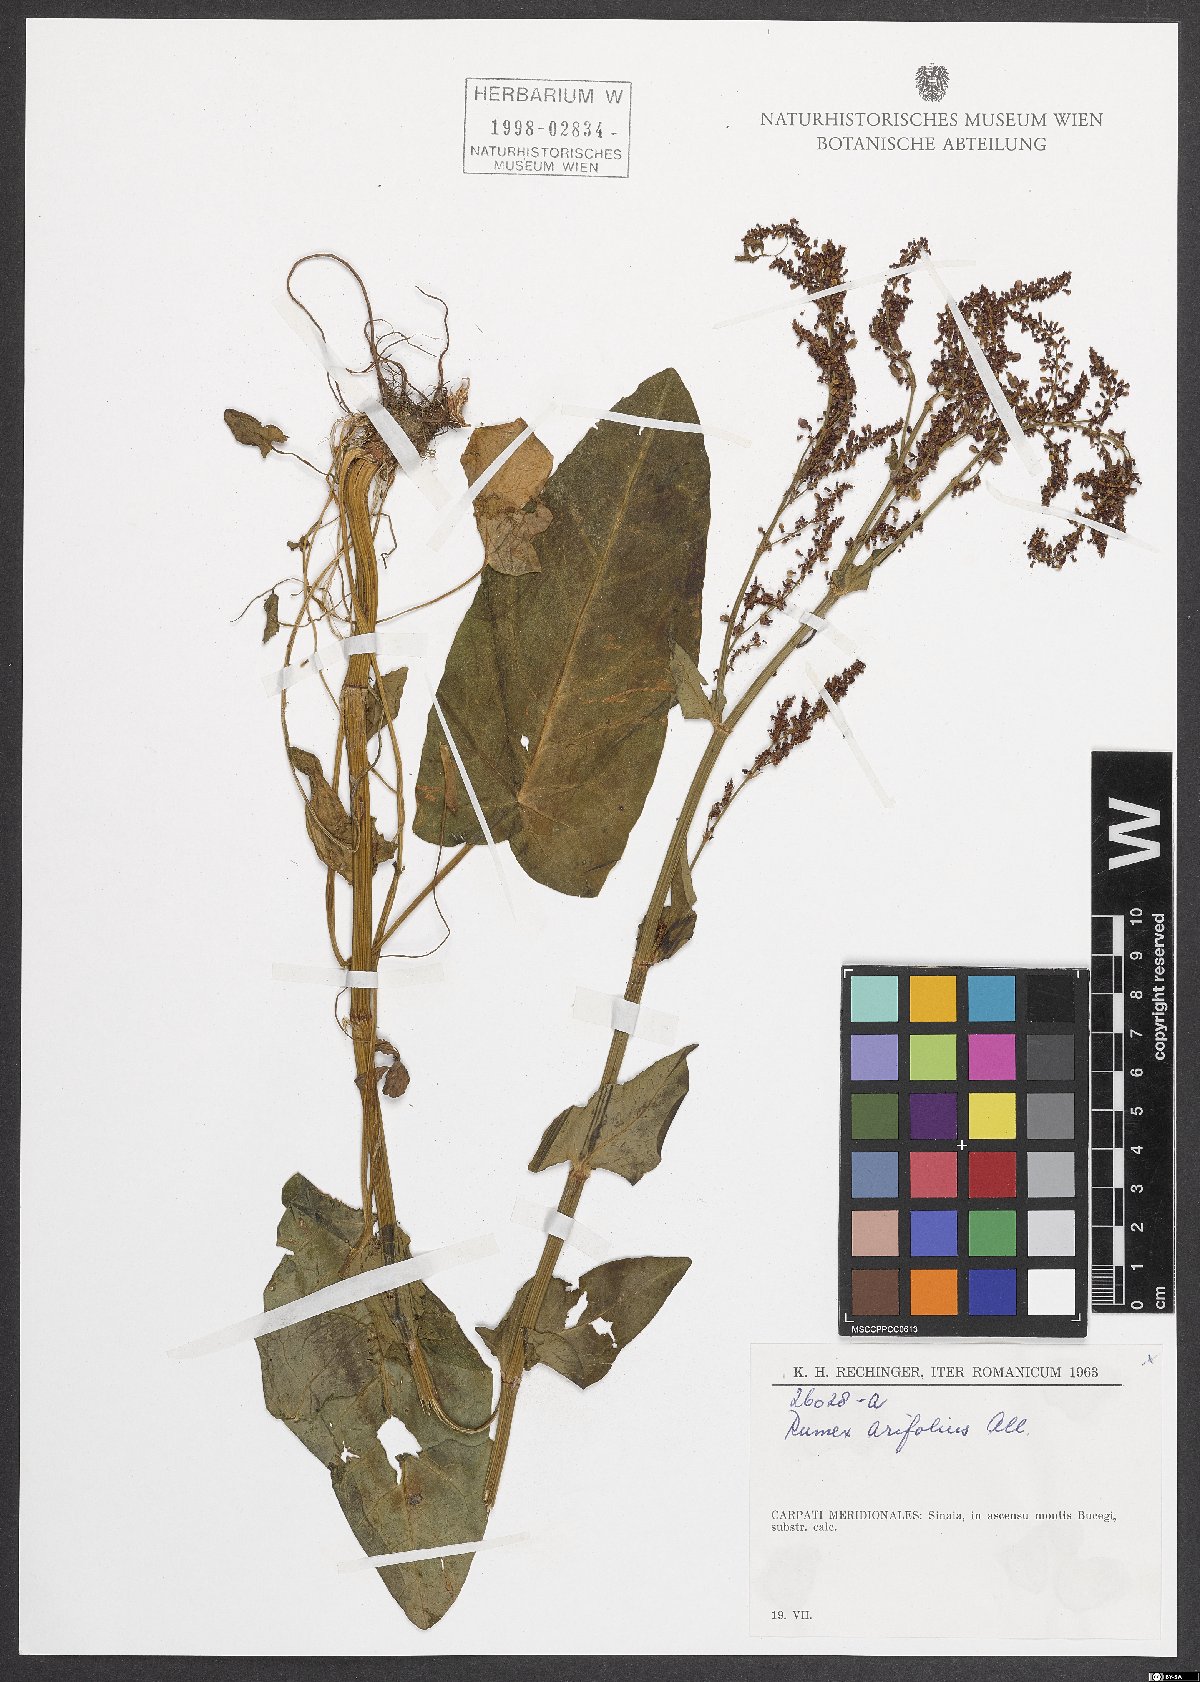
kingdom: Plantae
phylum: Tracheophyta
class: Magnoliopsida
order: Caryophyllales
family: Polygonaceae
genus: Rumex
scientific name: Rumex arifolius
